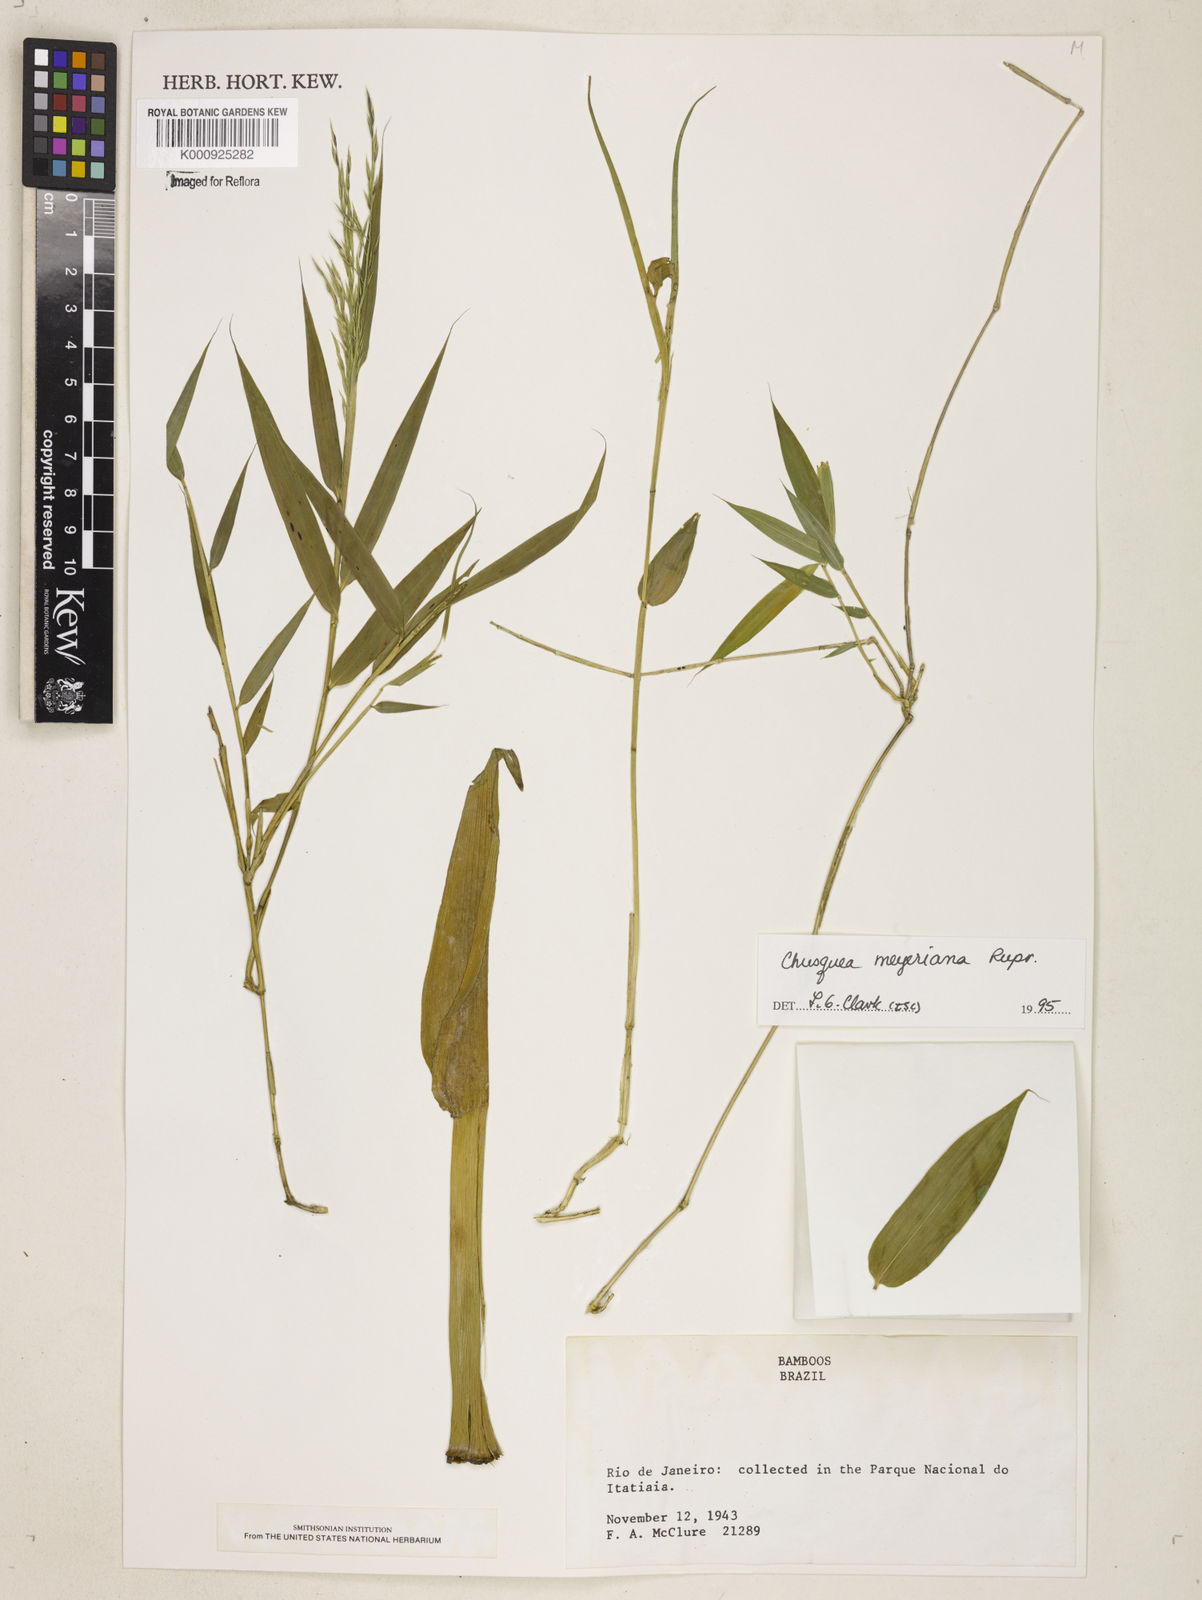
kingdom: Plantae
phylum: Tracheophyta
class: Liliopsida
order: Poales
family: Poaceae
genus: Chusquea
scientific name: Chusquea
